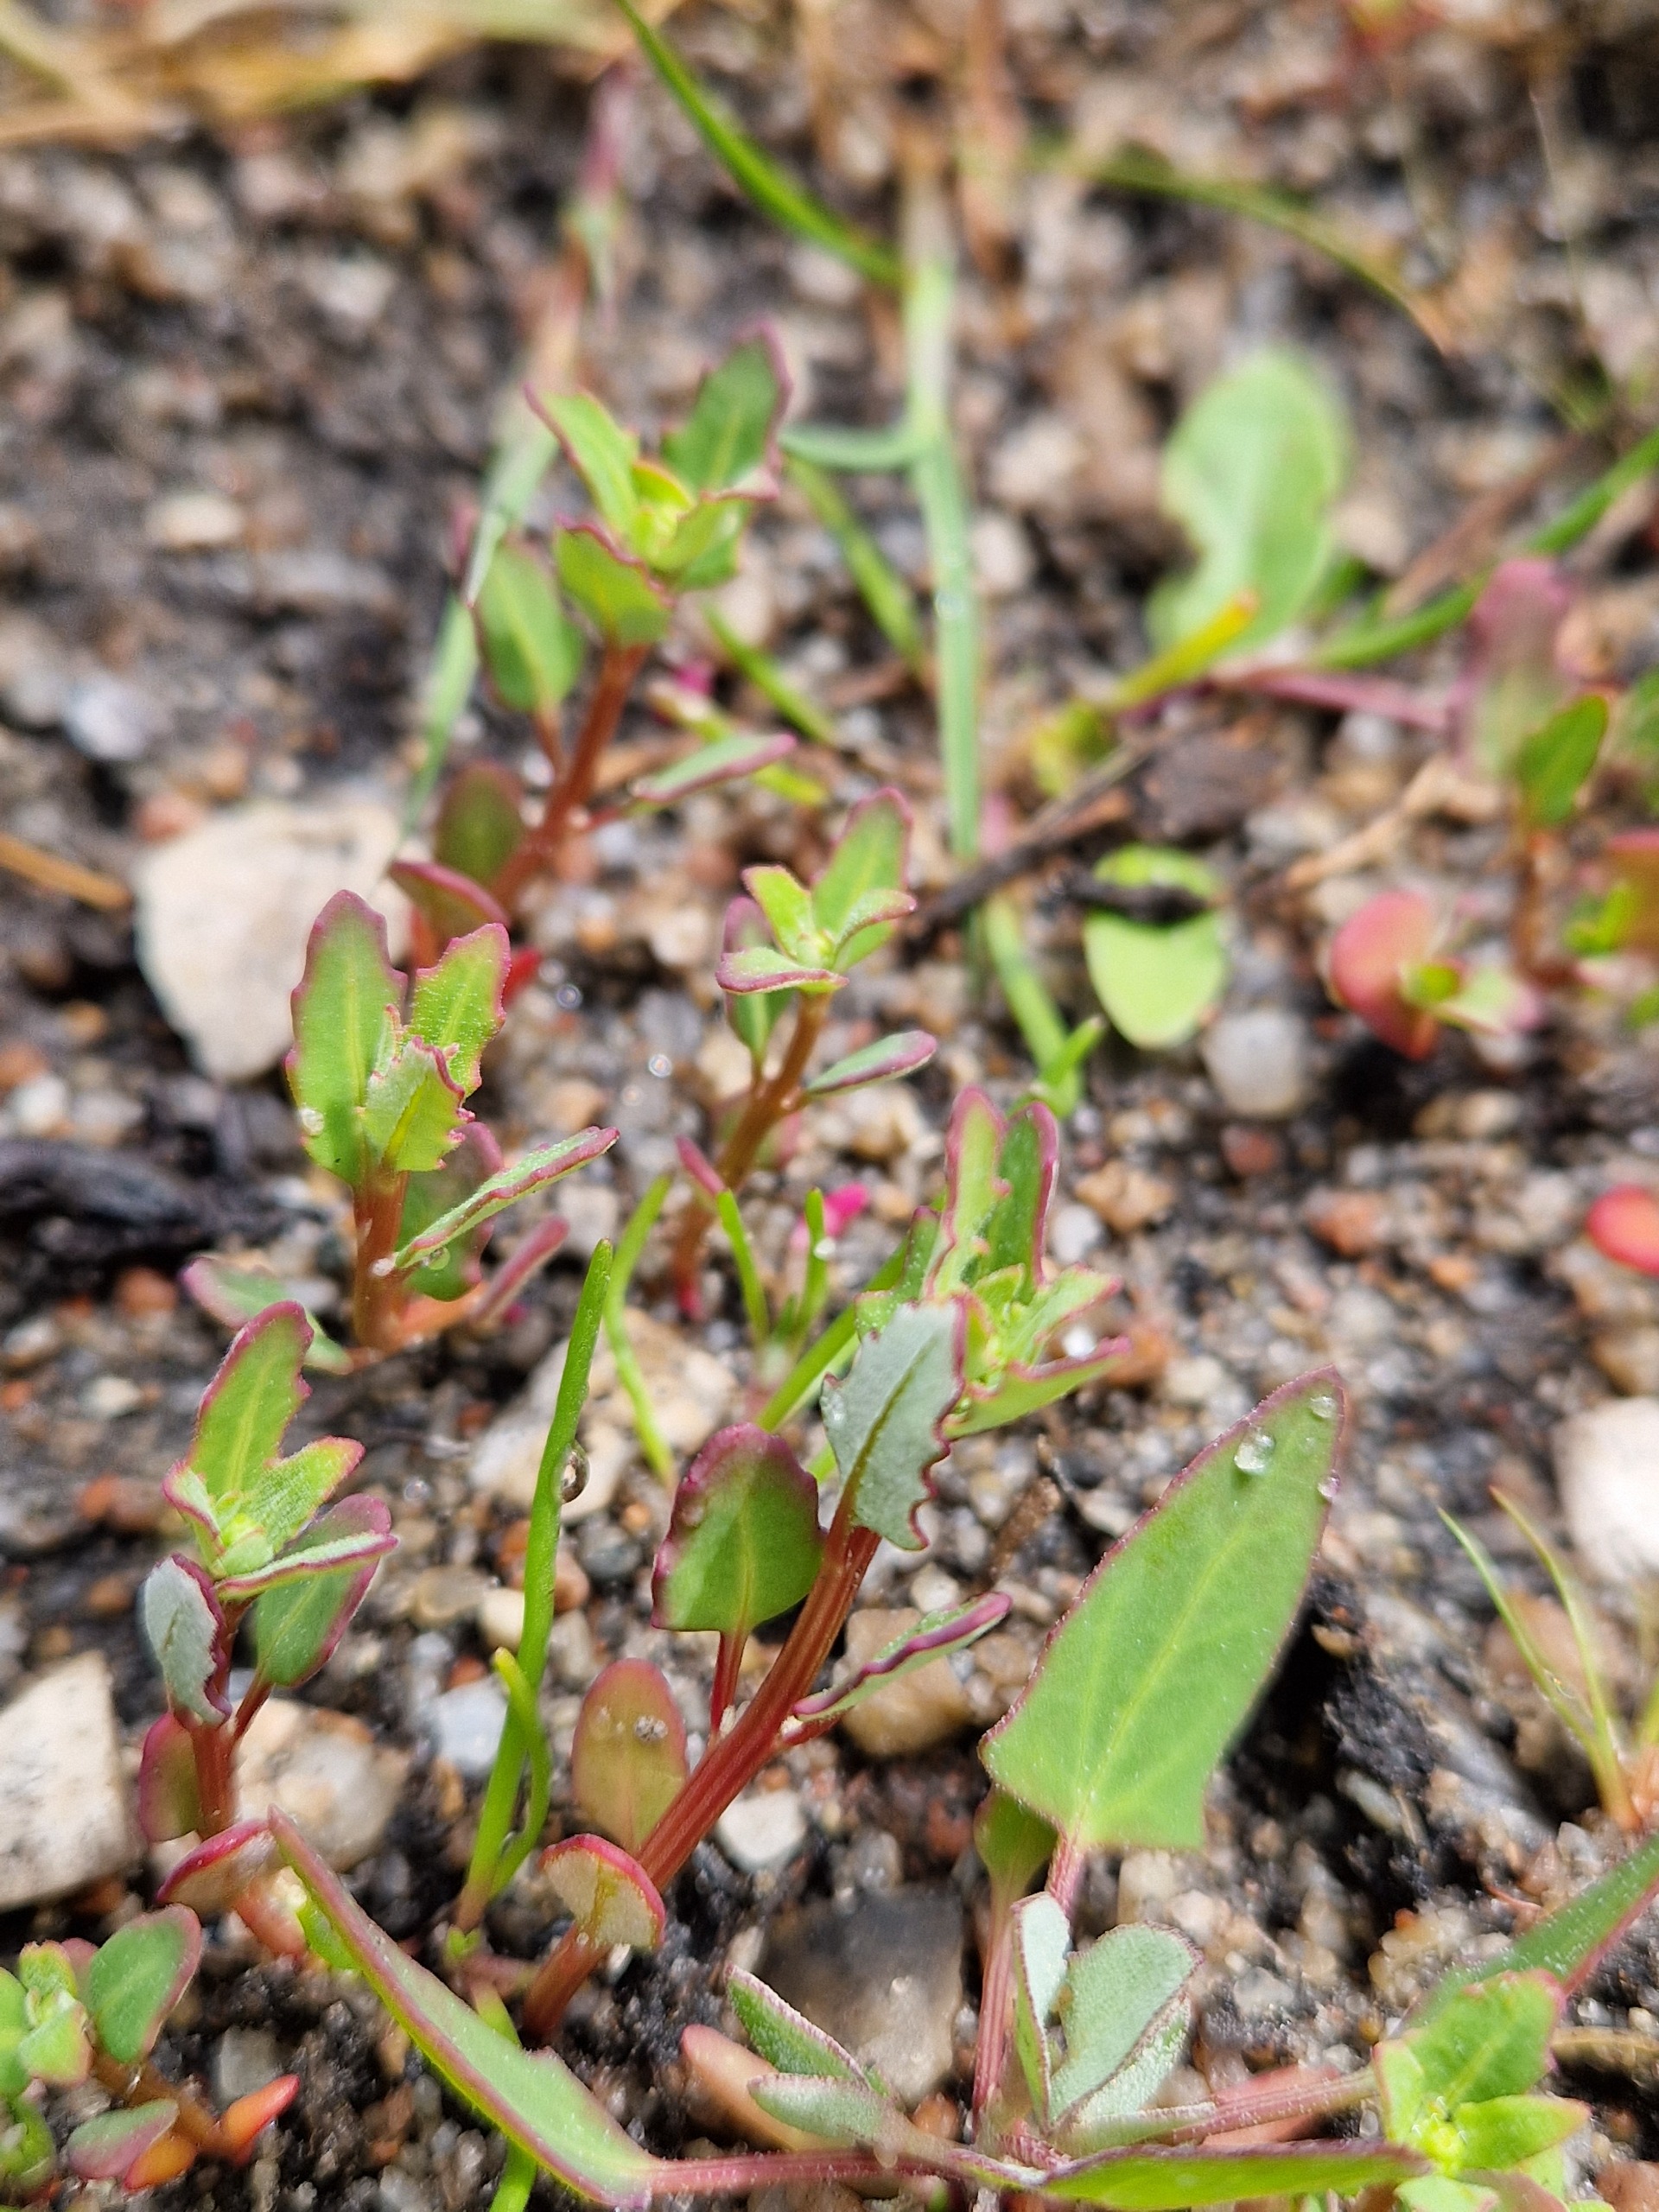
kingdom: Plantae
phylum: Tracheophyta
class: Magnoliopsida
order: Caryophyllales
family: Amaranthaceae
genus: Oxybasis
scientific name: Oxybasis glauca
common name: Blågrøn gåsefod
